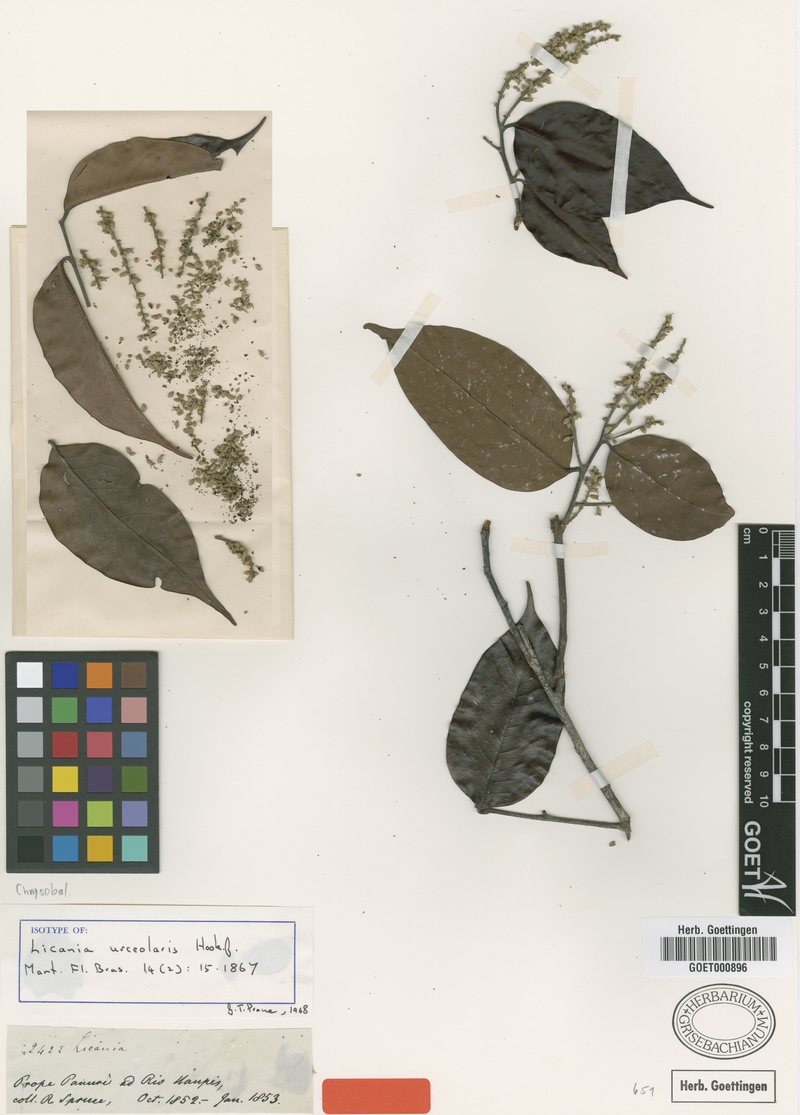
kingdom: Plantae
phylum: Tracheophyta
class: Magnoliopsida
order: Malpighiales
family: Chrysobalanaceae
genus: Licania
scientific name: Licania urceolaris
